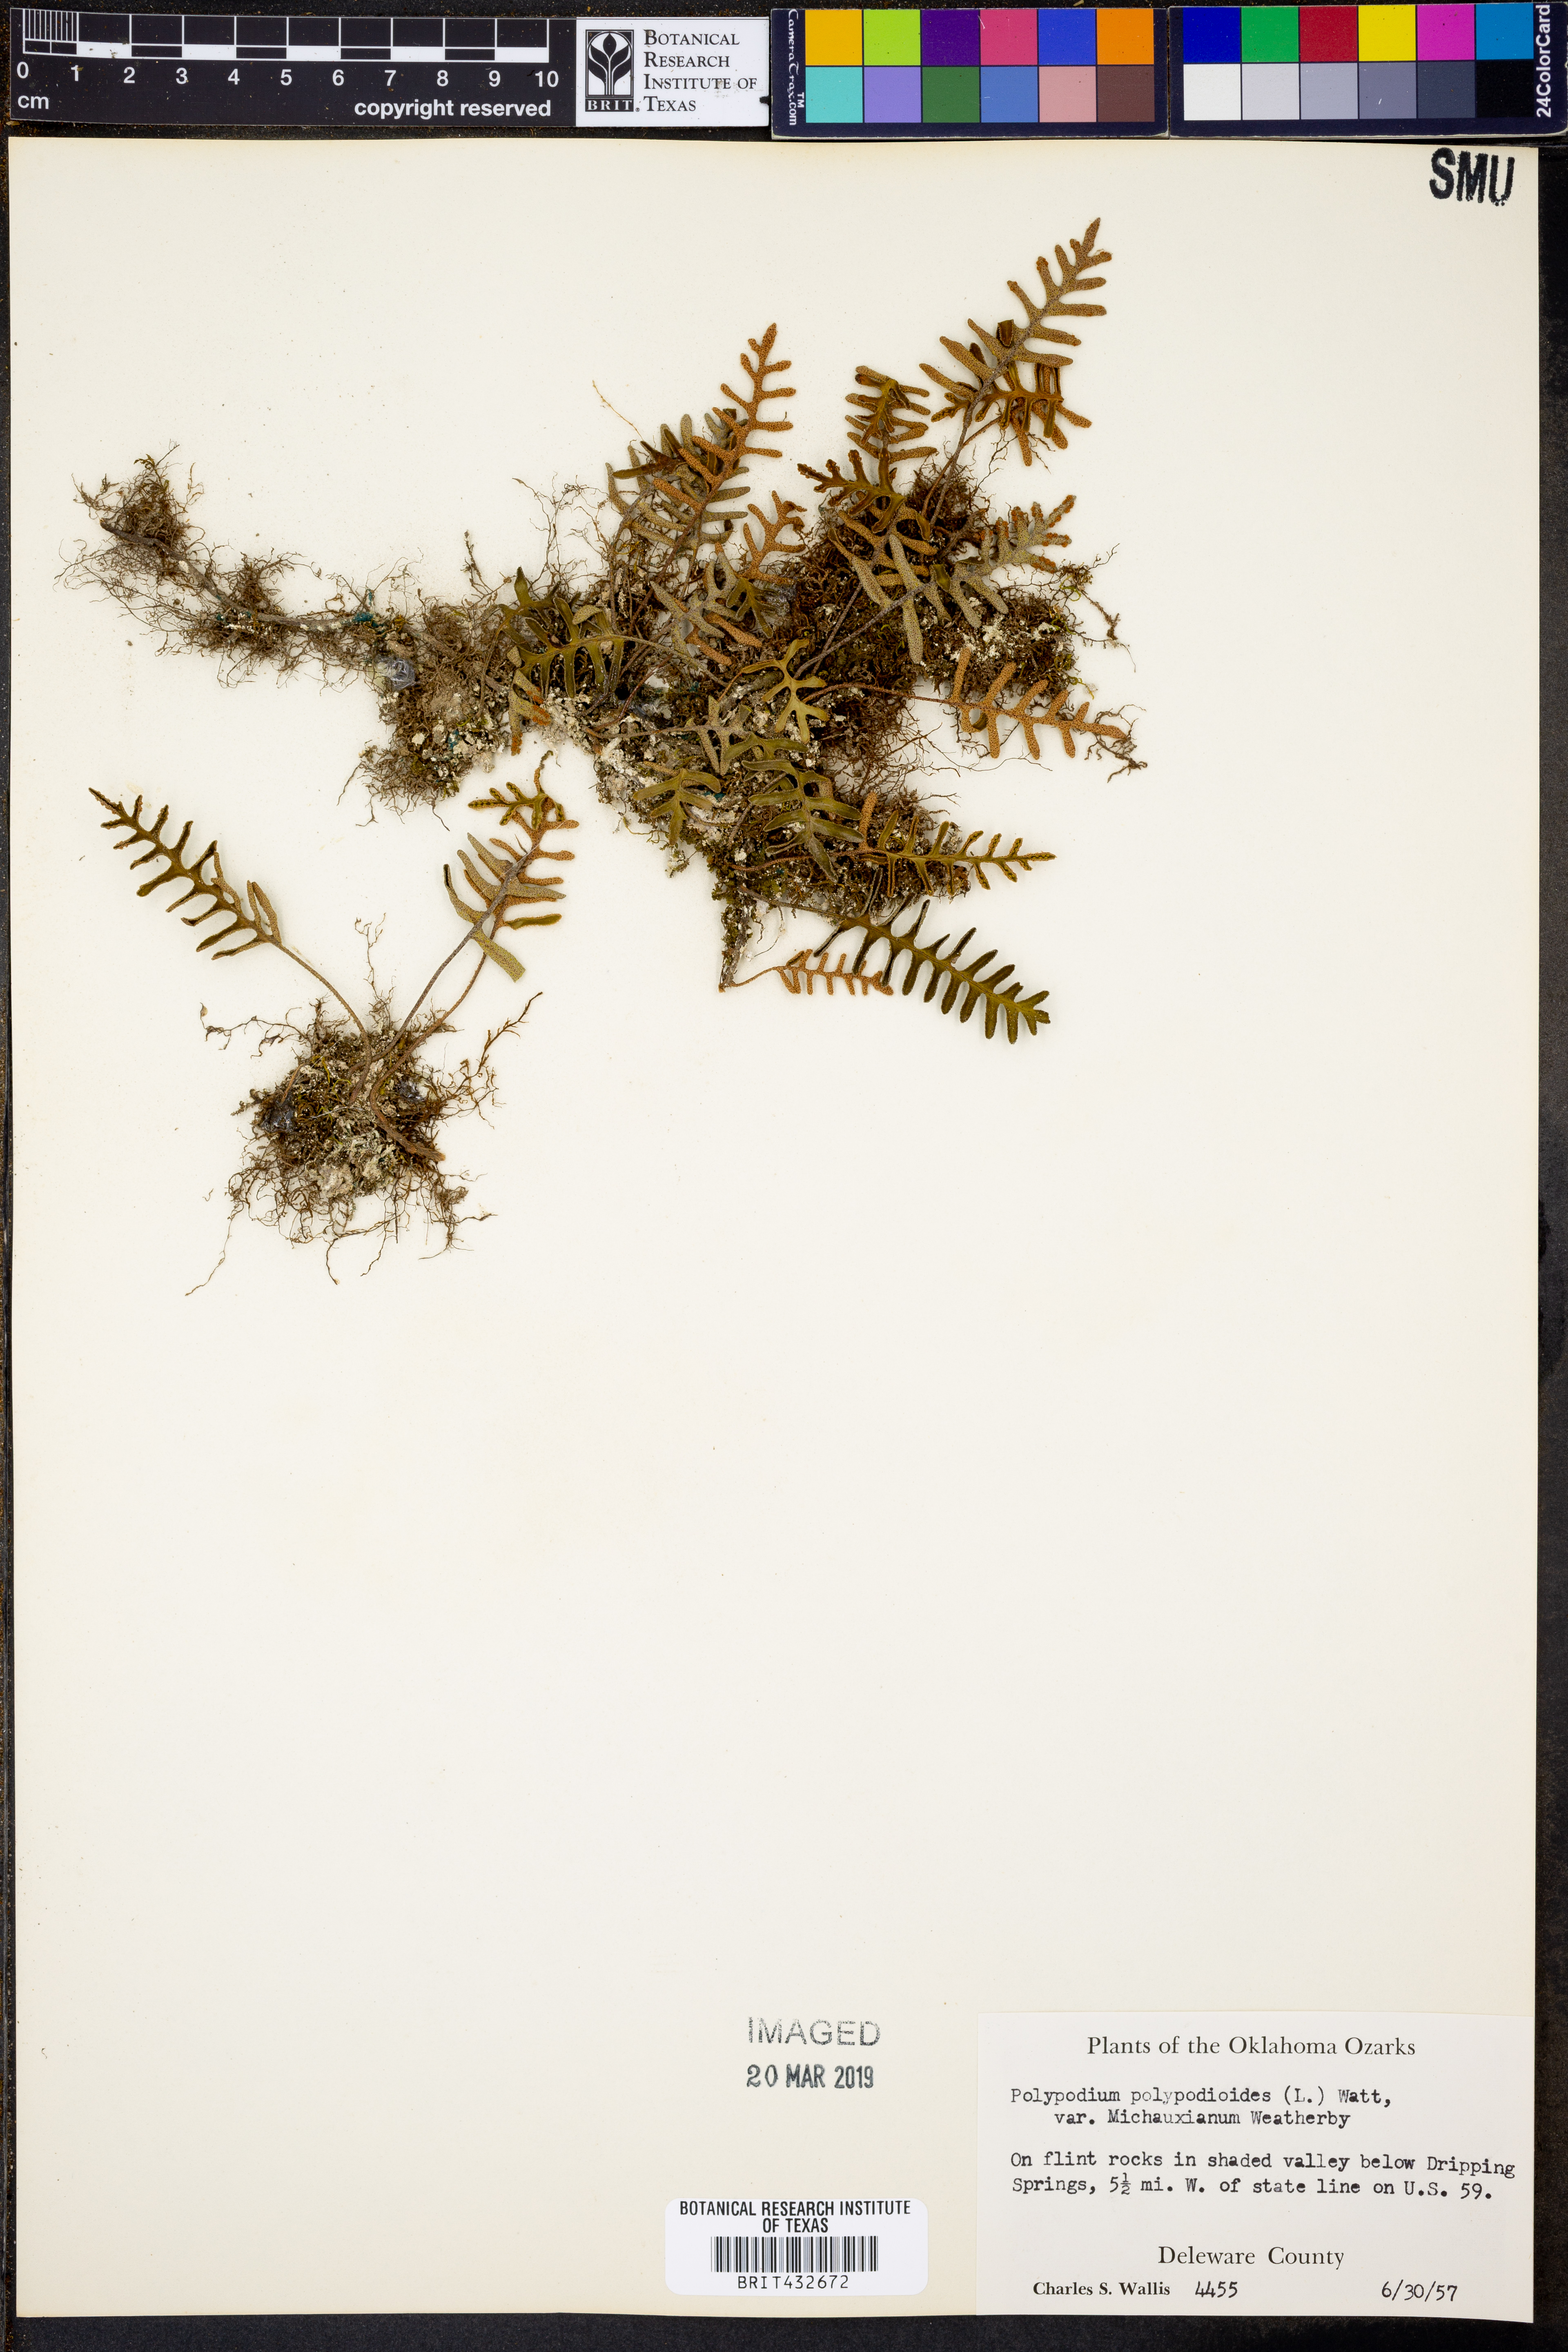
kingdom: Plantae
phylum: Tracheophyta
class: Polypodiopsida
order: Polypodiales
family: Polypodiaceae
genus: Pleopeltis
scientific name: Pleopeltis michauxiana
